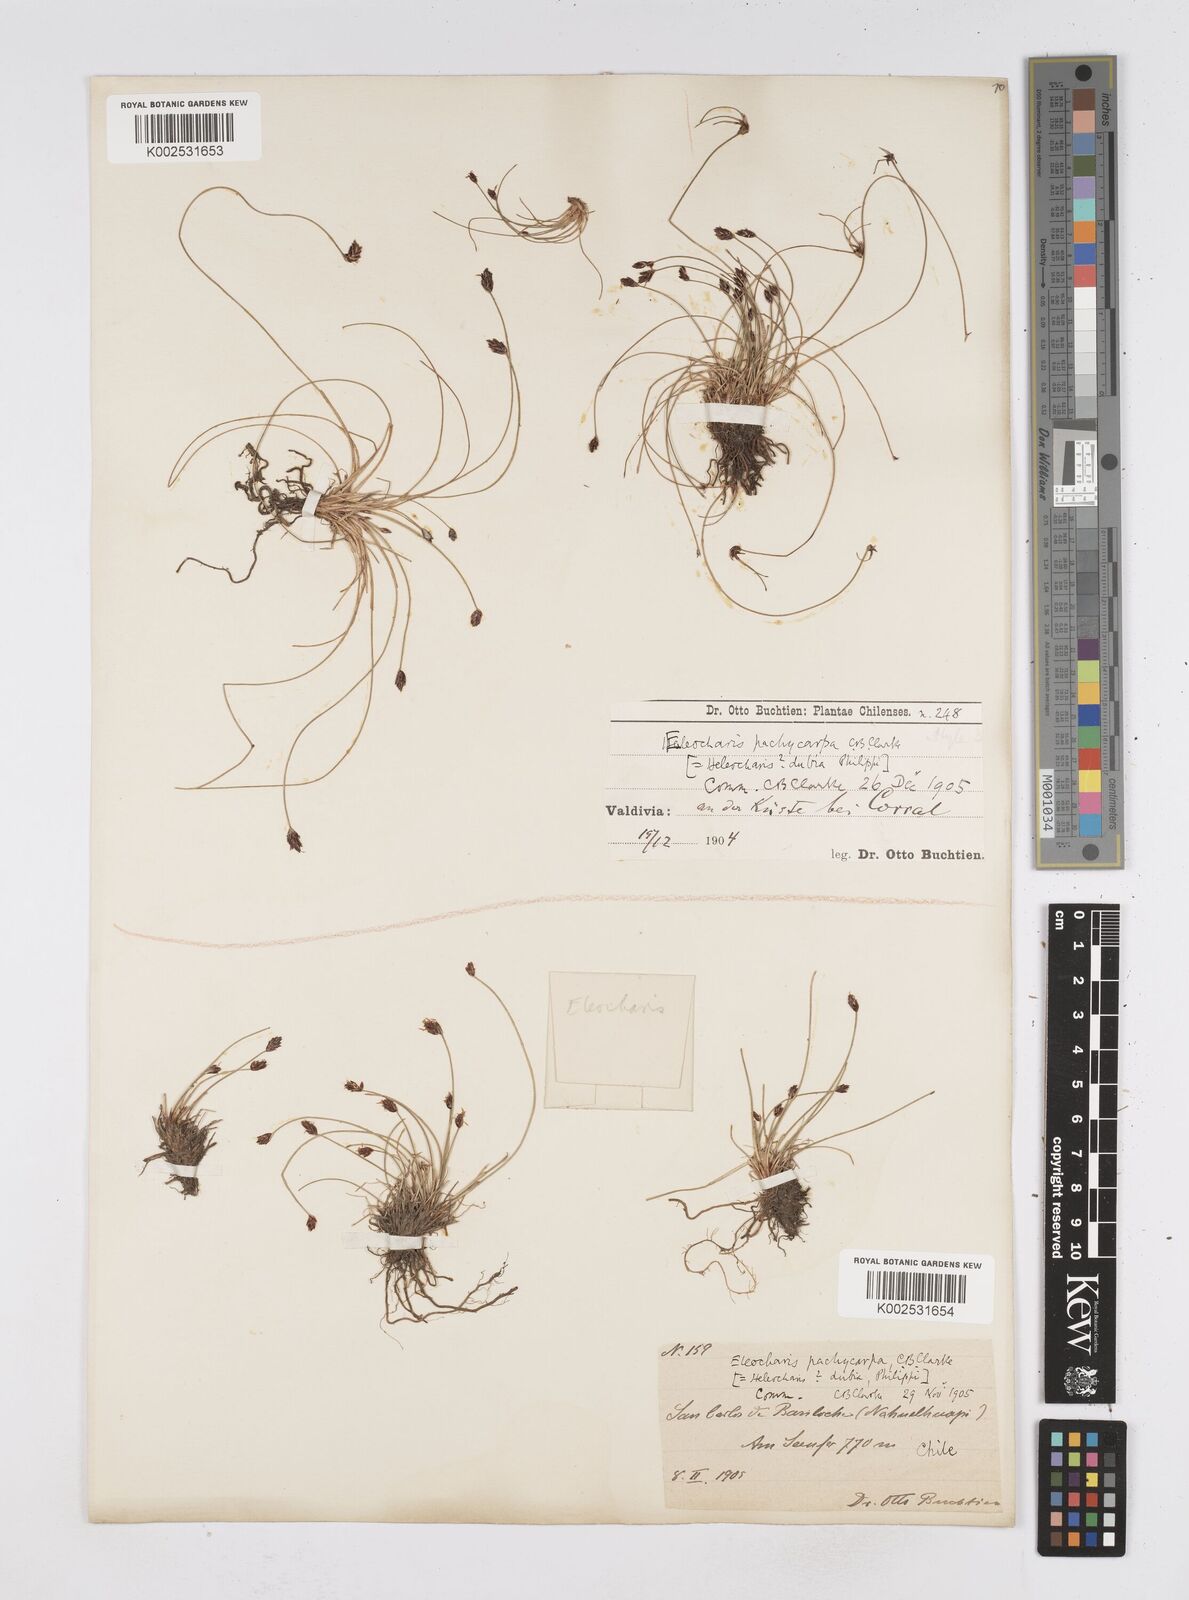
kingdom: Plantae
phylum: Tracheophyta
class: Liliopsida
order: Poales
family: Cyperaceae
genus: Eleocharis
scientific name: Eleocharis pachycarpa
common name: Black sand spikerush
